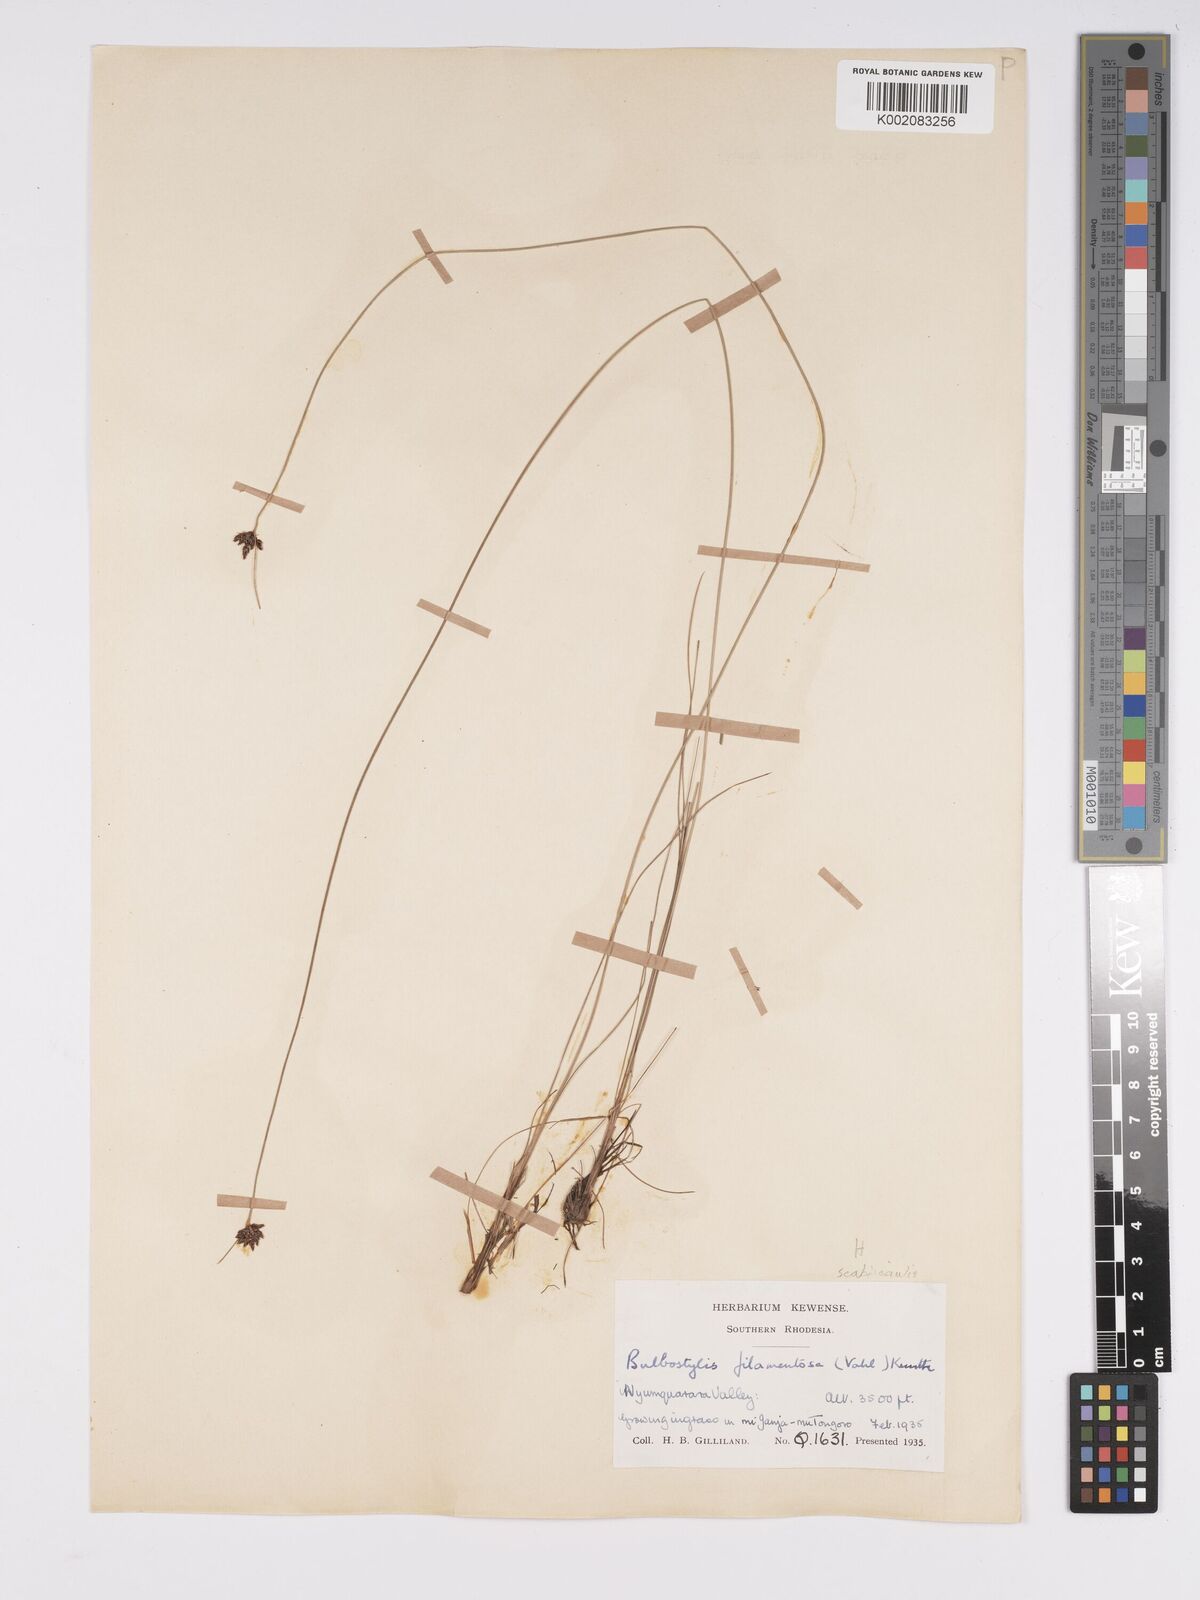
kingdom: Plantae
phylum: Tracheophyta
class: Liliopsida
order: Poales
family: Cyperaceae
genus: Bulbostylis
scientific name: Bulbostylis scabricaulis
